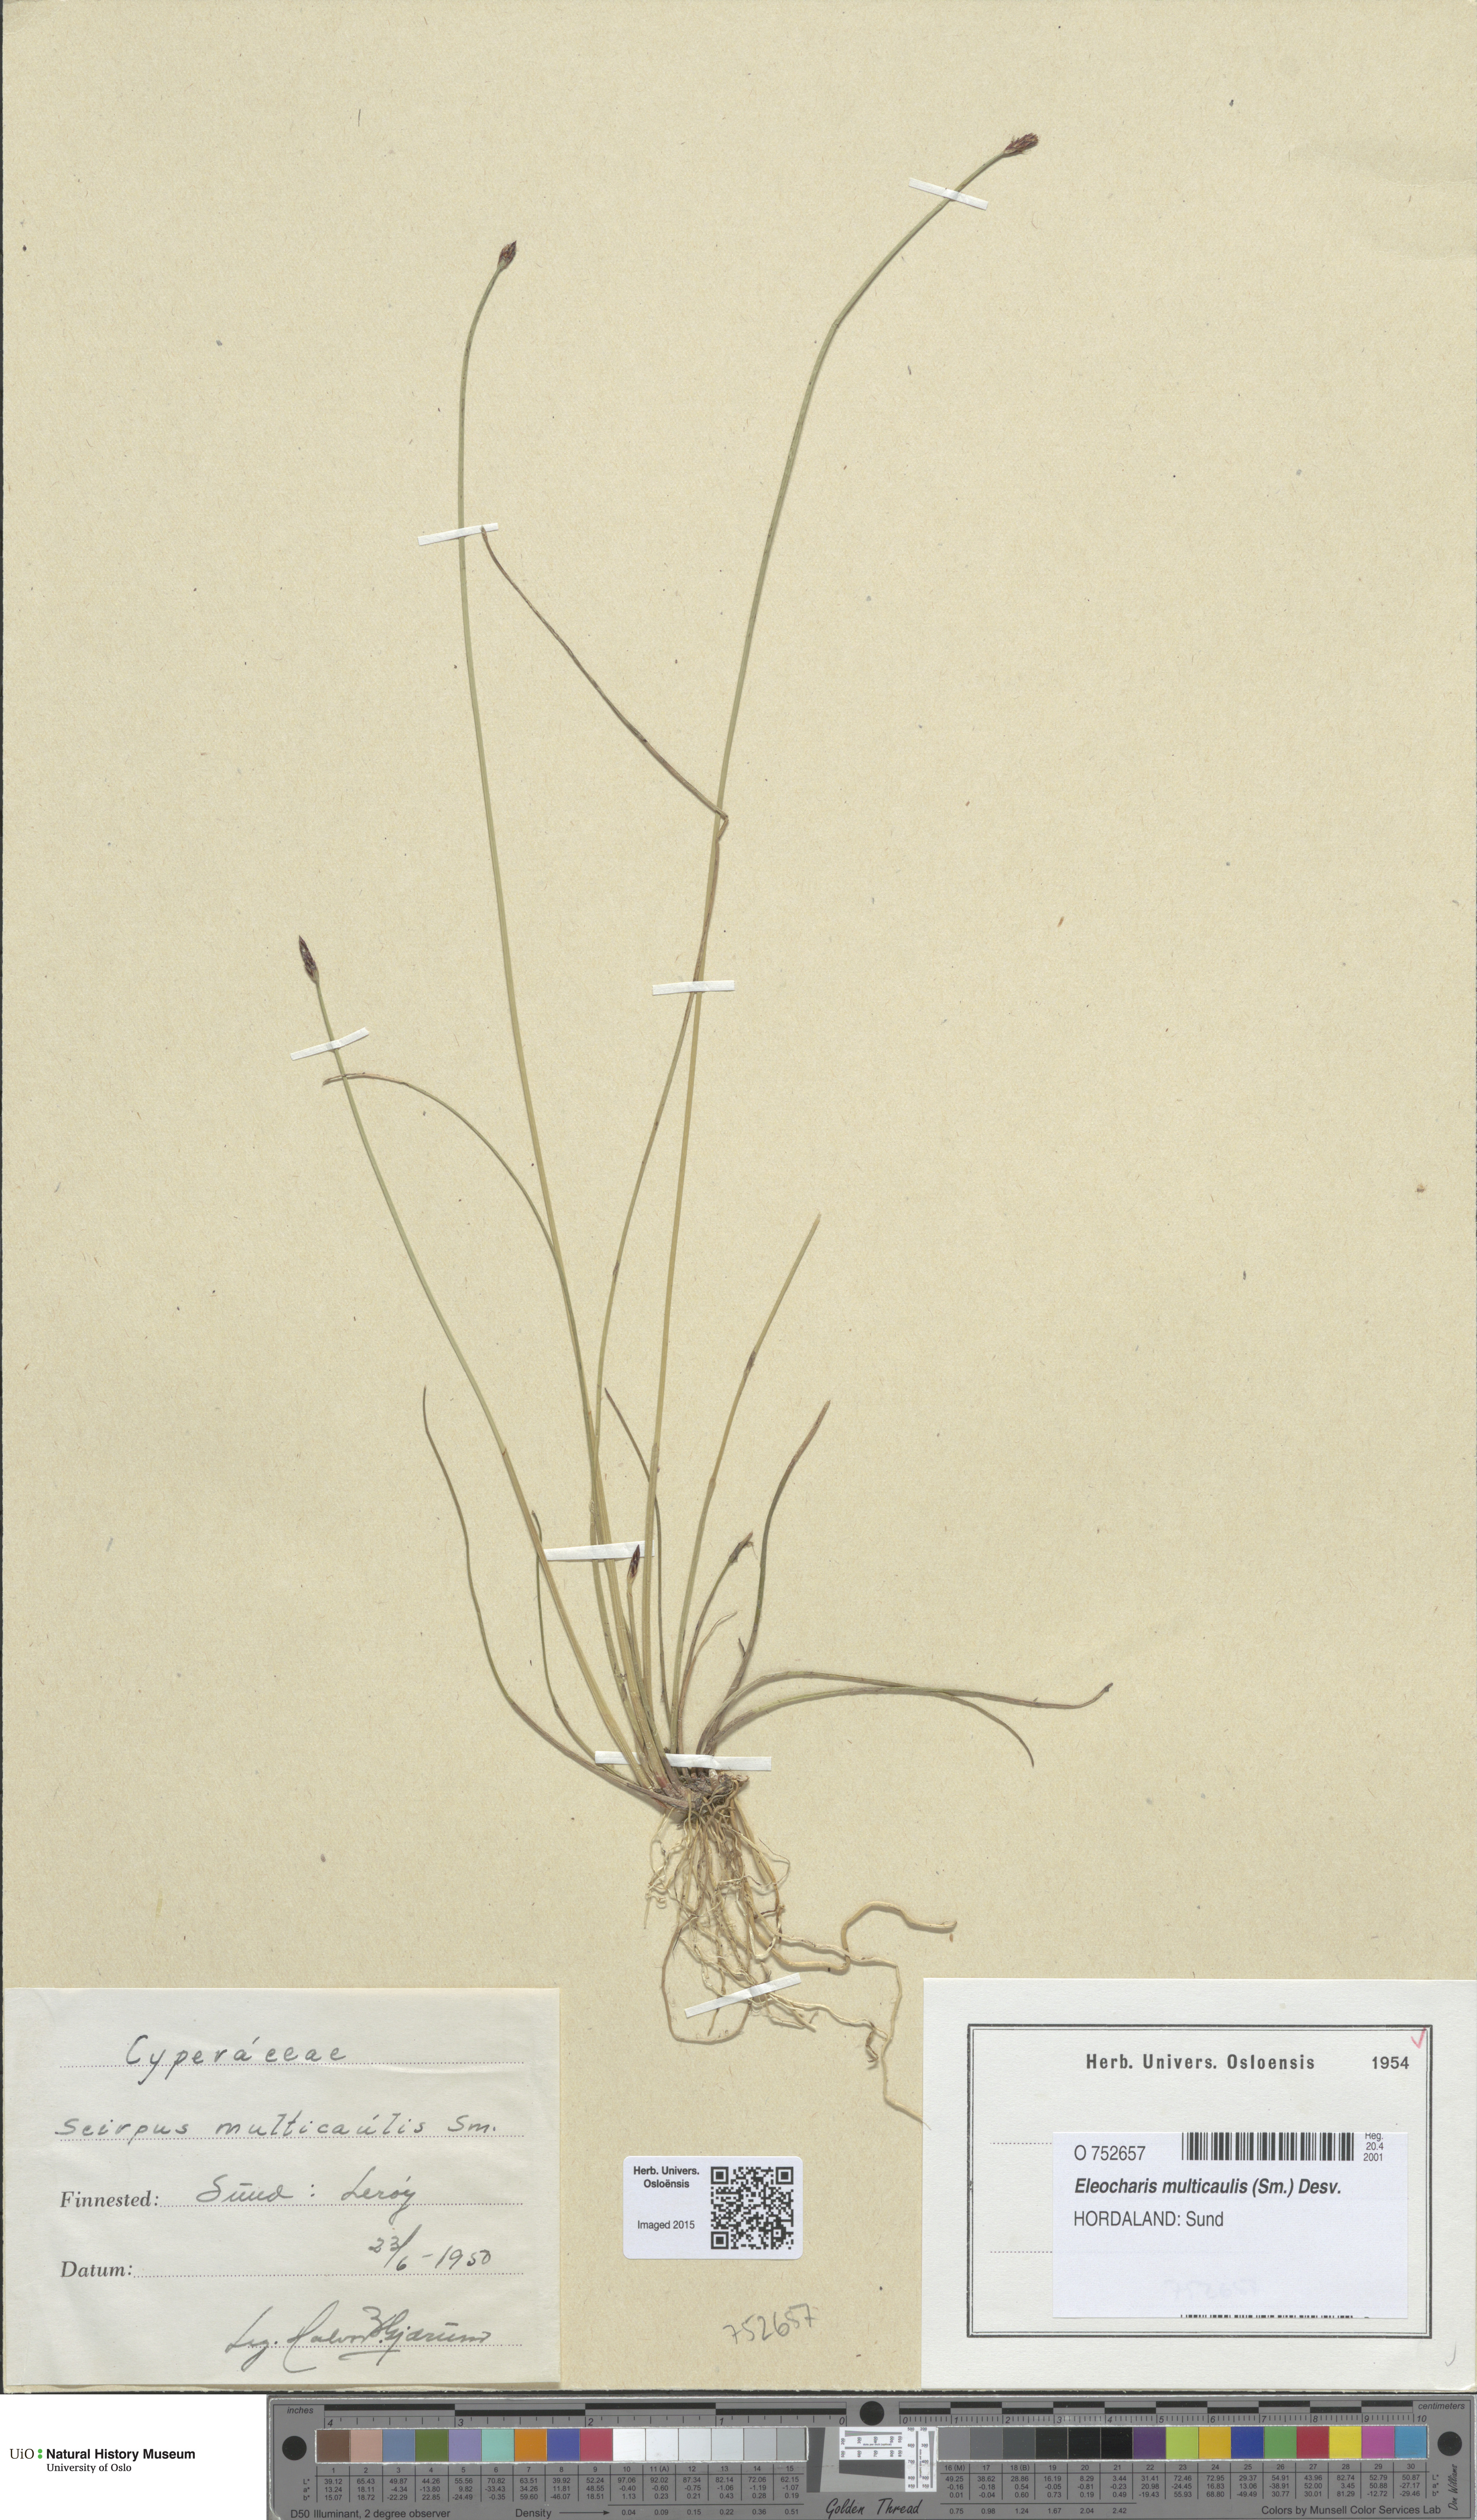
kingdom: Plantae
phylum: Tracheophyta
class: Liliopsida
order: Poales
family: Cyperaceae
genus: Eleocharis
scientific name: Eleocharis multicaulis
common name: Many-stalked spike-rush
